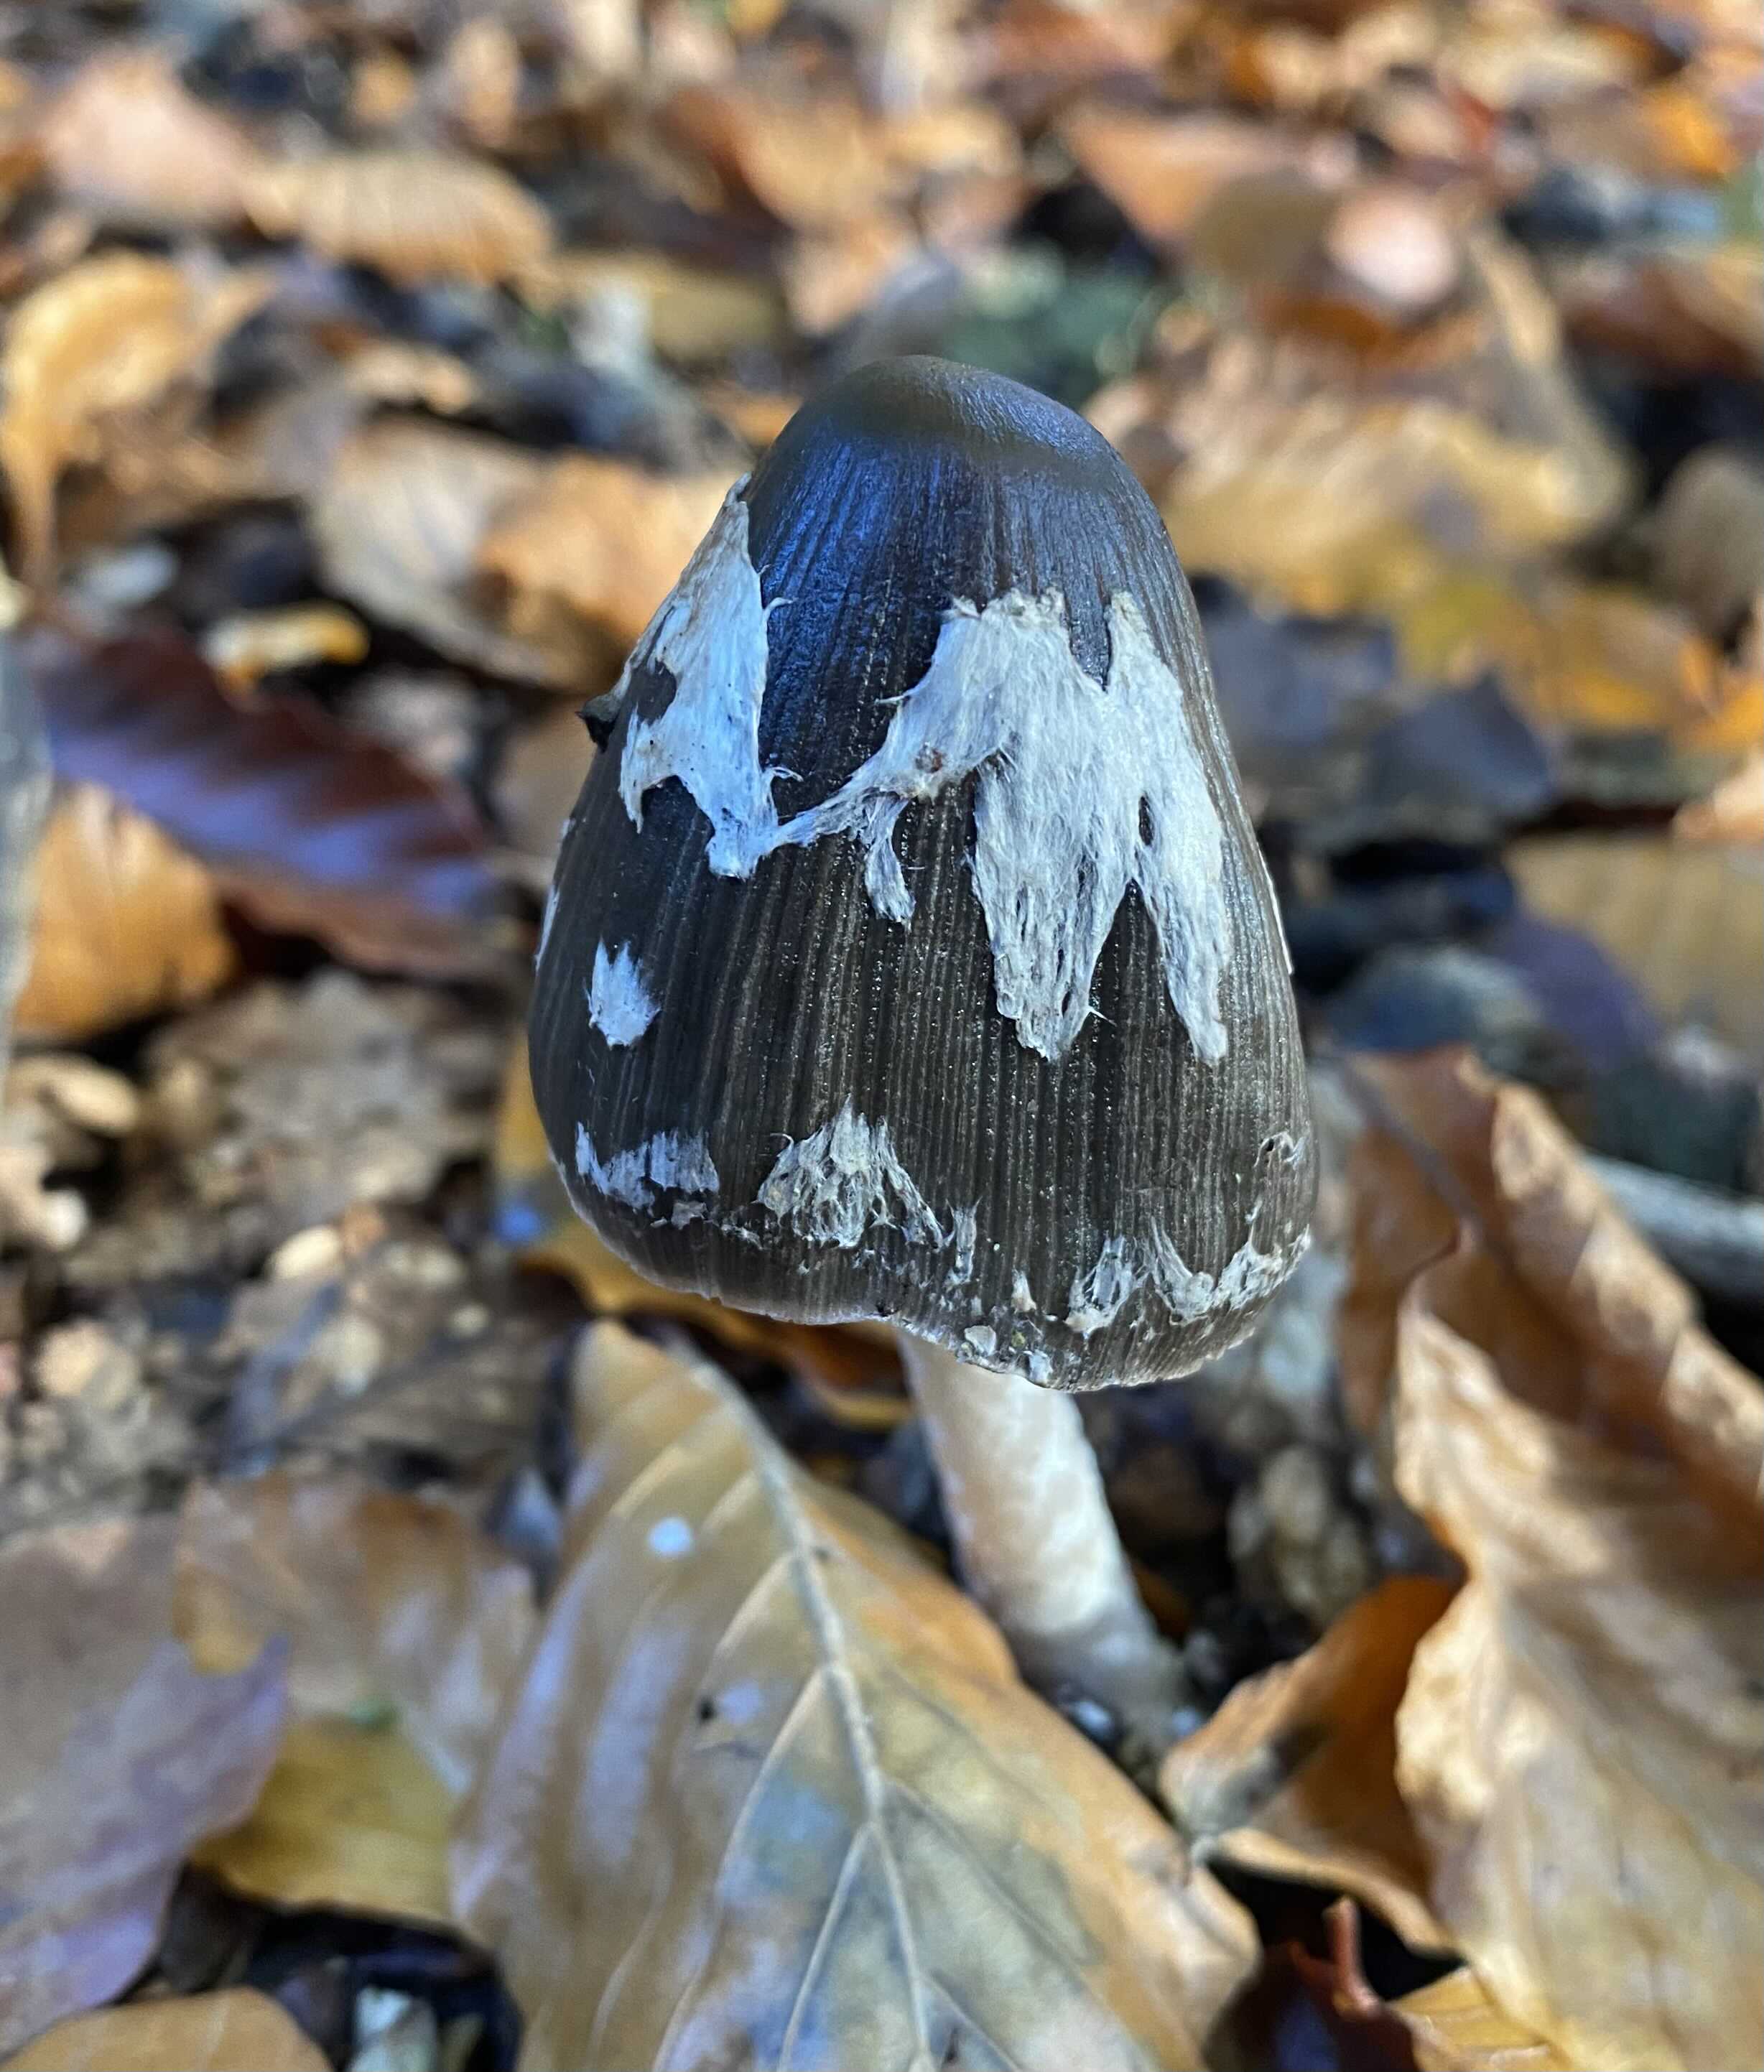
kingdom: Fungi
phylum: Basidiomycota
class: Agaricomycetes
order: Agaricales
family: Psathyrellaceae
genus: Coprinopsis
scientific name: Coprinopsis picacea
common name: skade-blækhat
